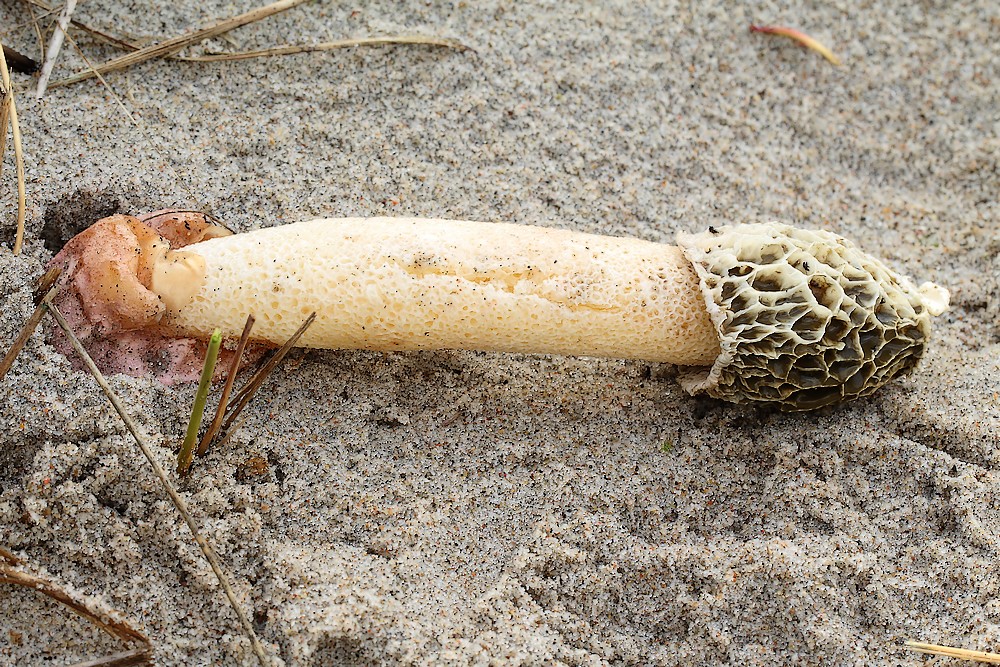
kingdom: Fungi
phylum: Basidiomycota
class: Agaricomycetes
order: Phallales
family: Phallaceae
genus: Phallus
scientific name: Phallus hadriani
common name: sand-stinksvamp
